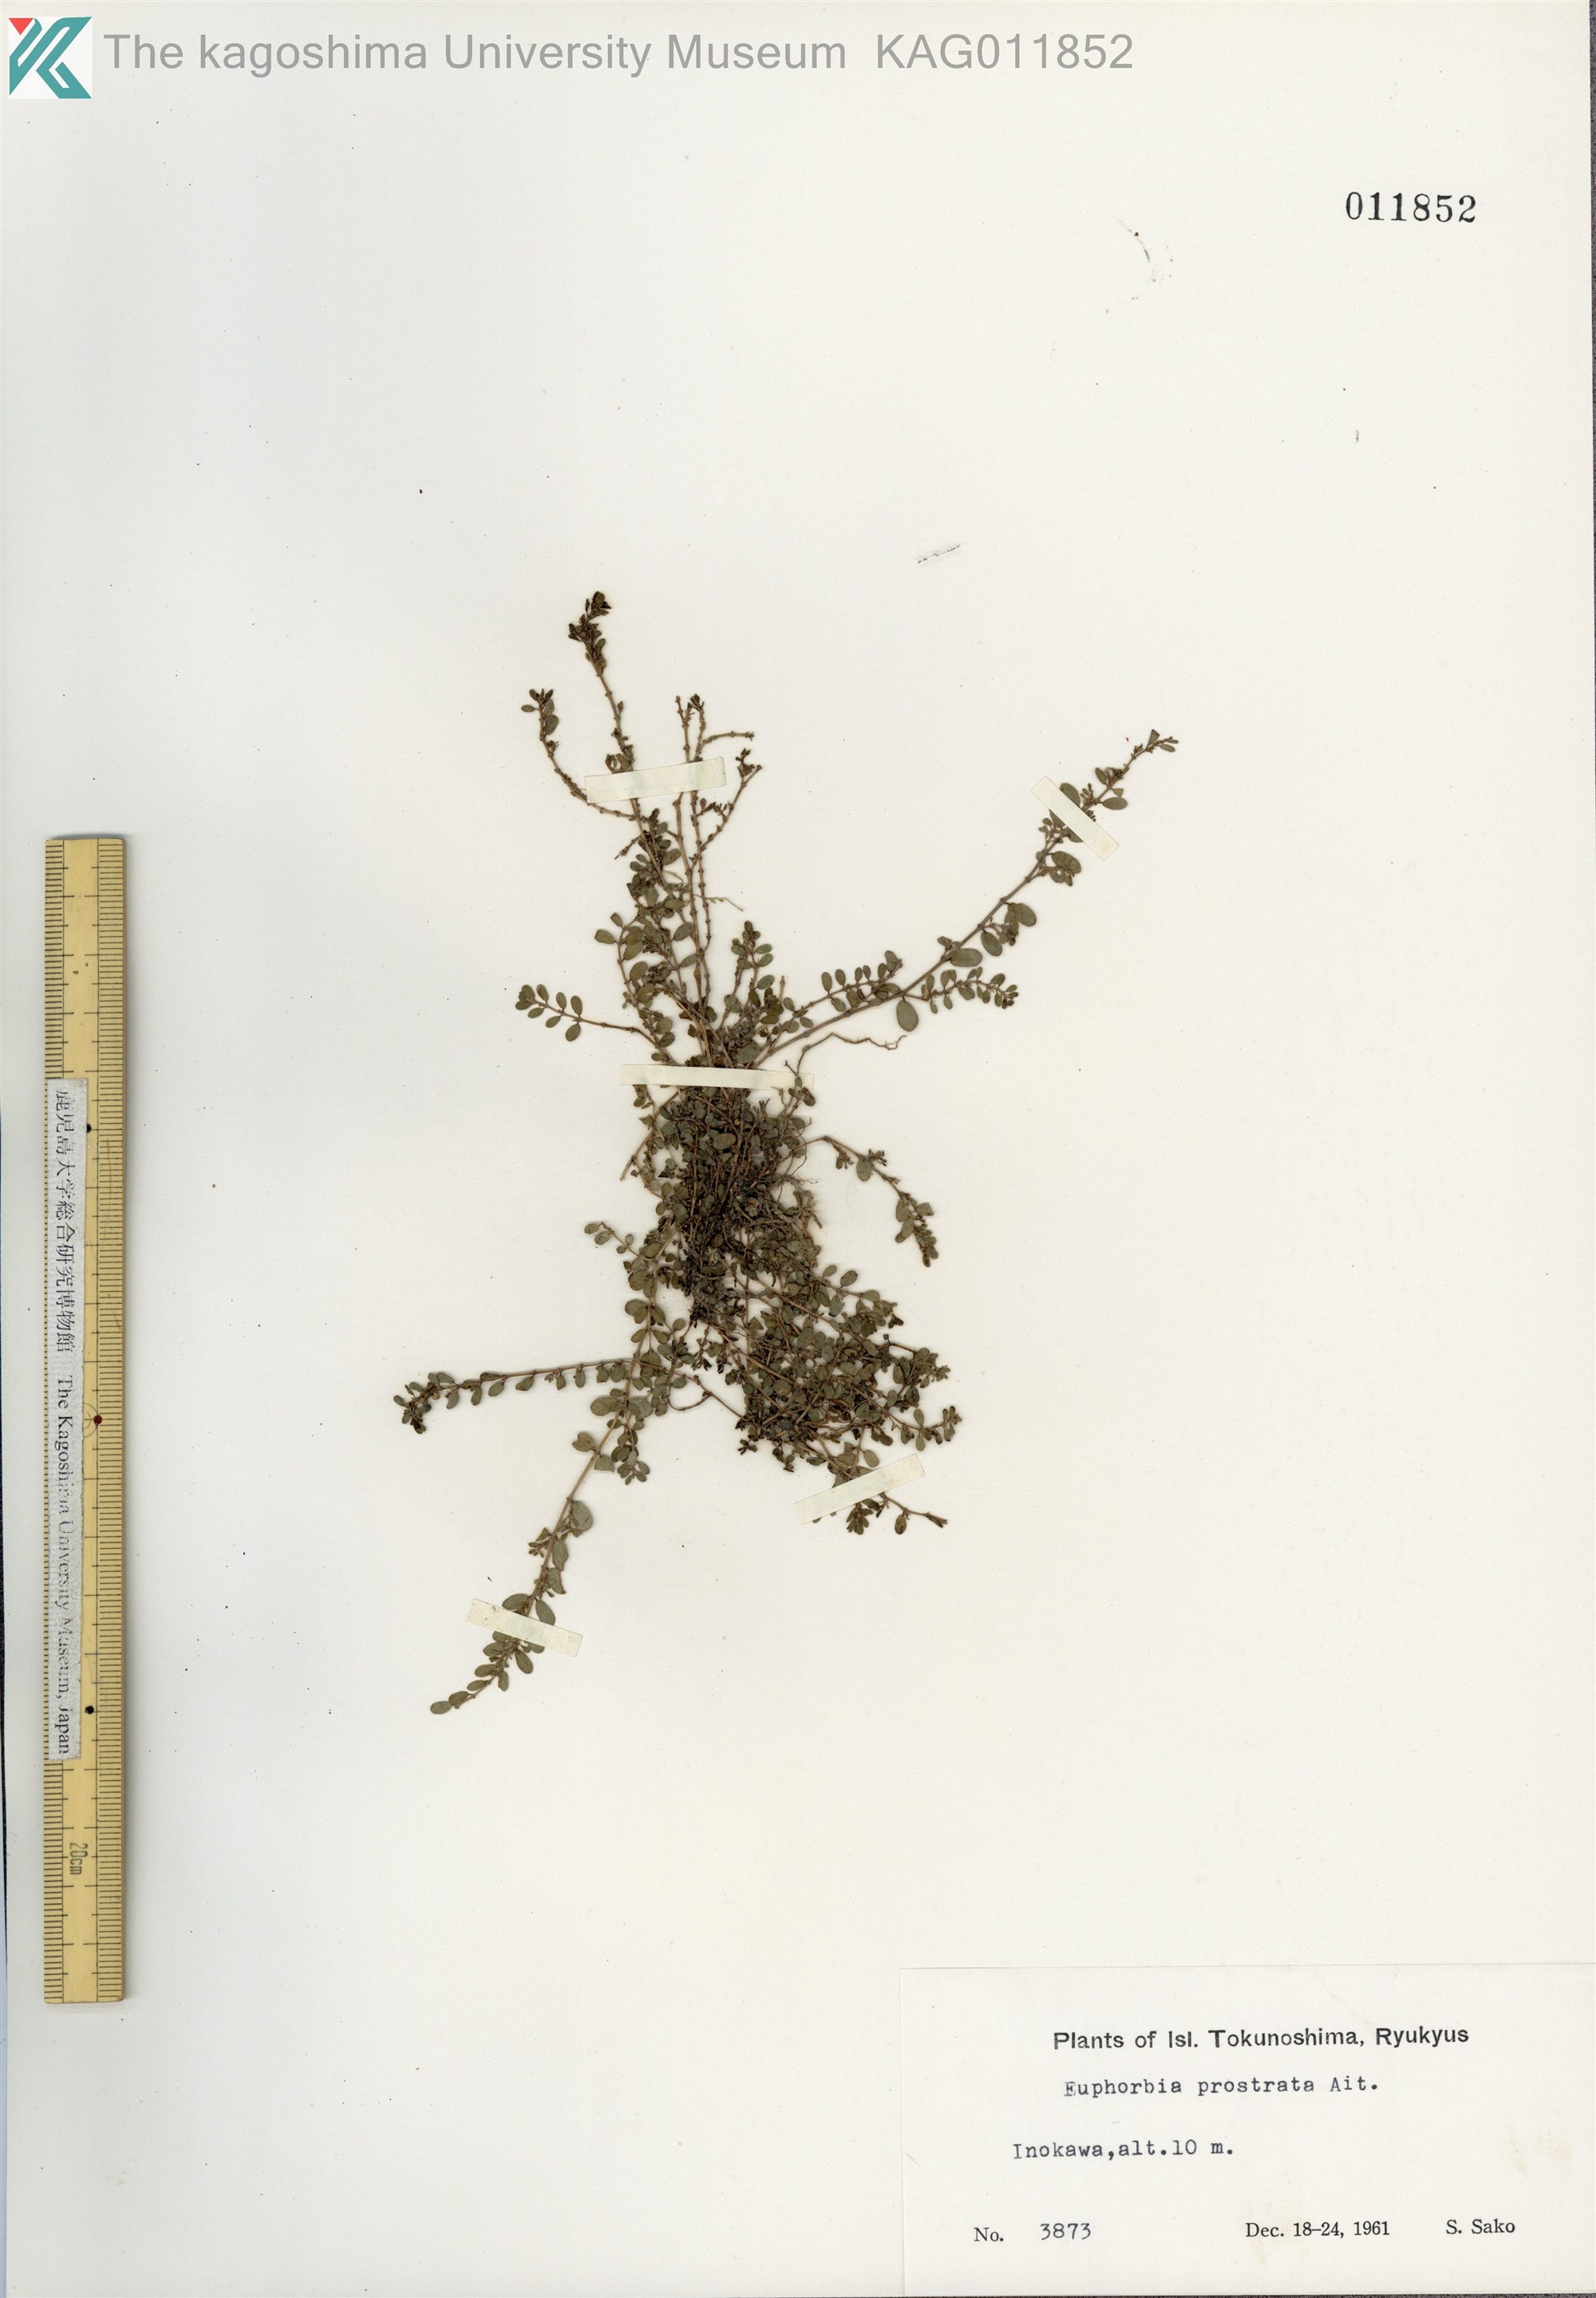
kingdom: Plantae
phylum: Tracheophyta
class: Magnoliopsida
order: Malpighiales
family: Euphorbiaceae
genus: Euphorbia
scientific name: Euphorbia prostrata
